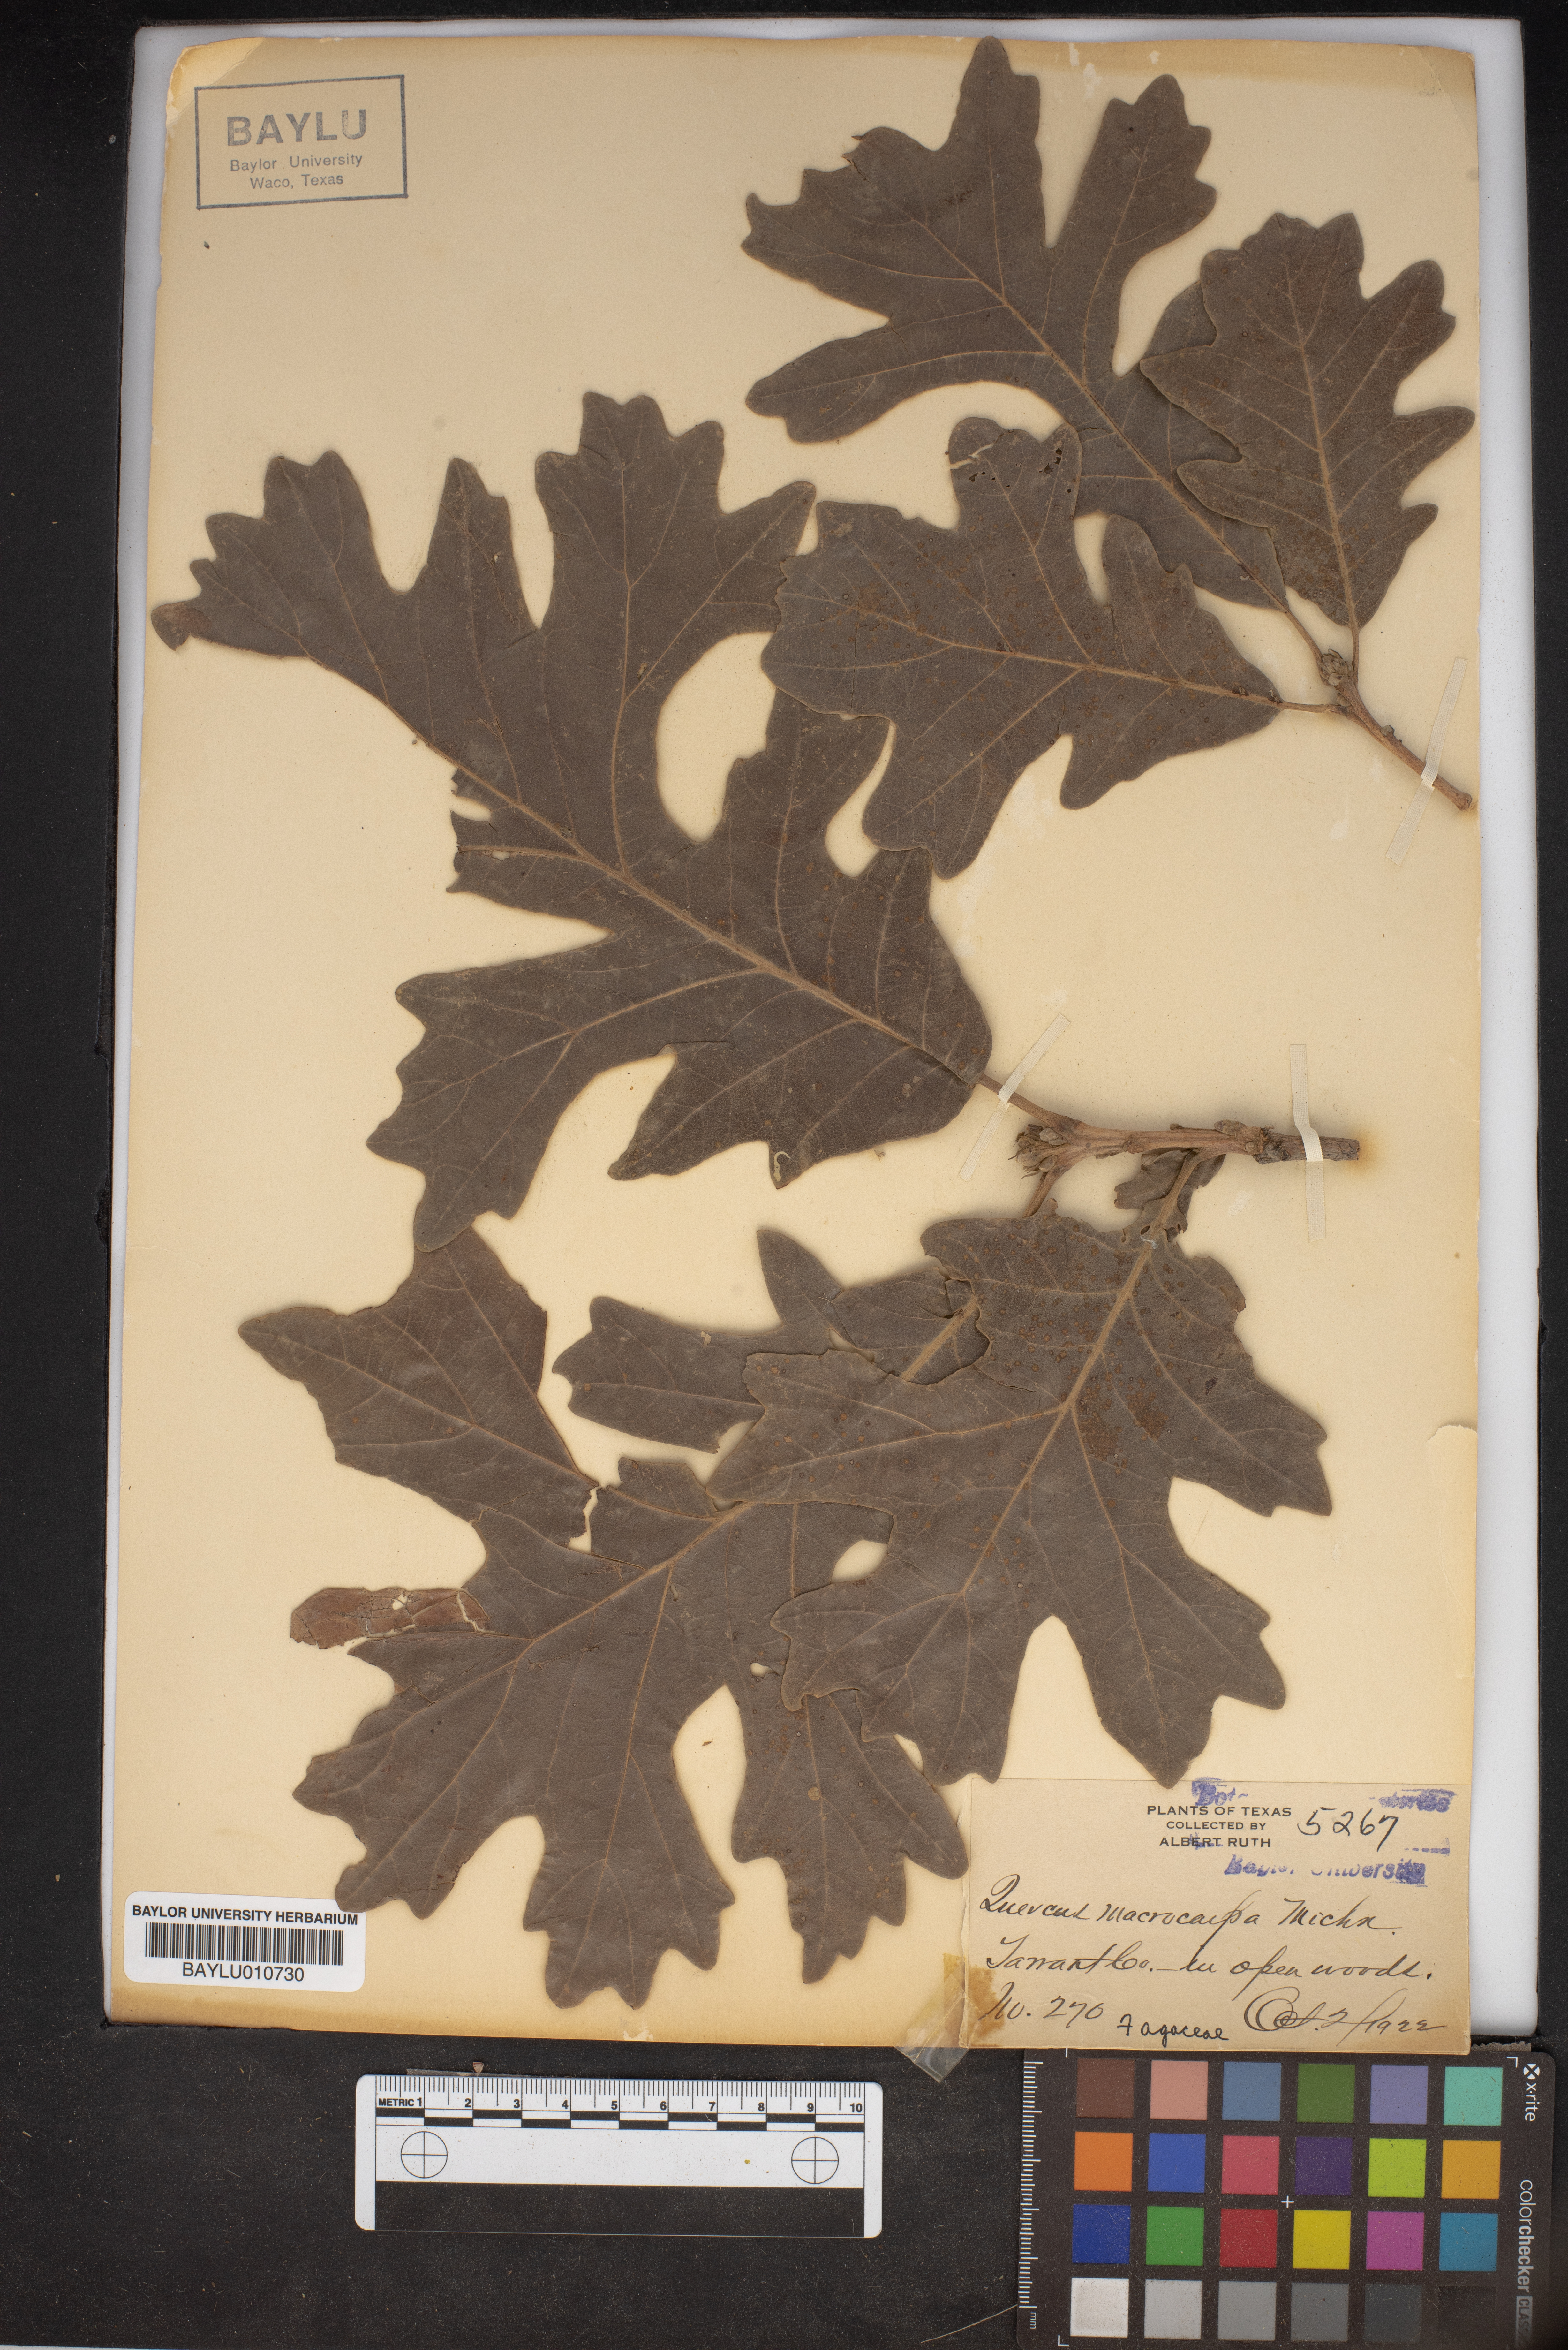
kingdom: Plantae
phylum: Tracheophyta
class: Magnoliopsida
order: Fagales
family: Fagaceae
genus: Quercus
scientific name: Quercus macrocarpa
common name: Bur oak
